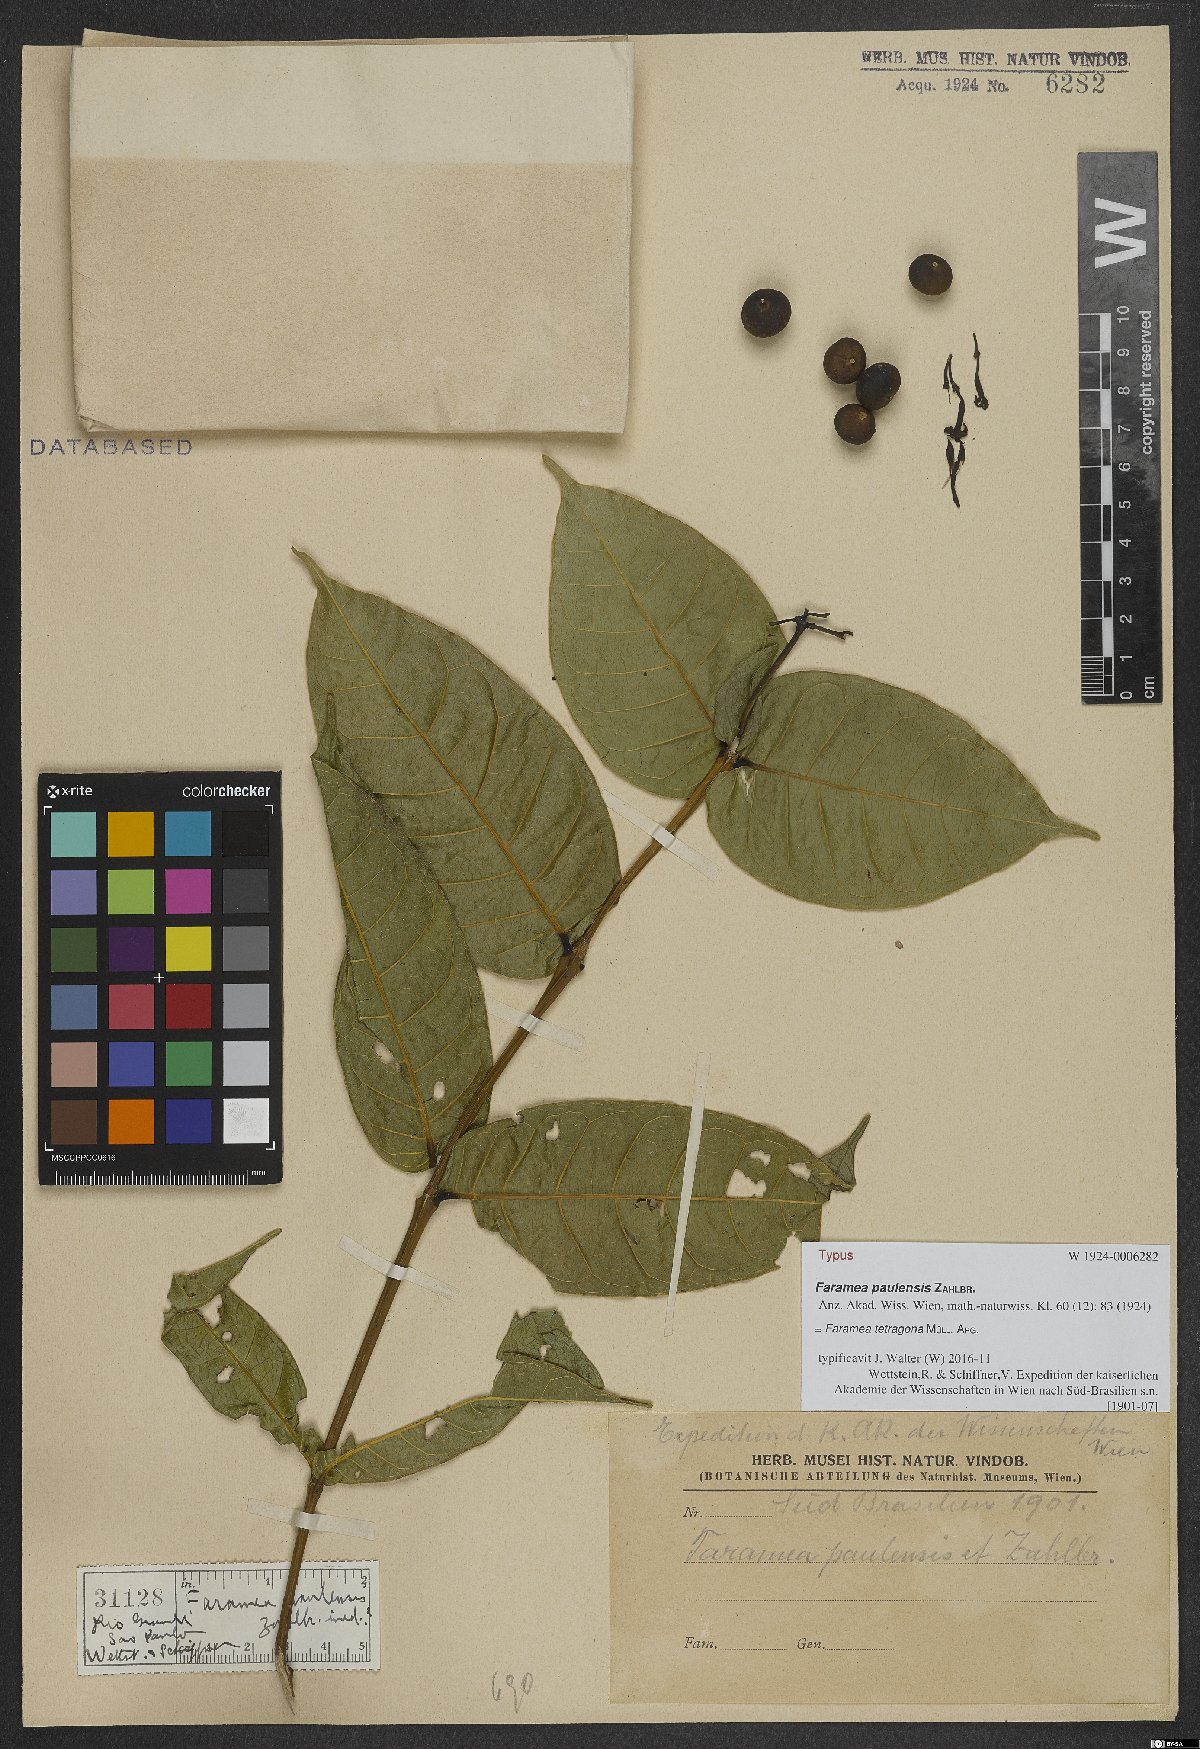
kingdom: Plantae
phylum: Tracheophyta
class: Magnoliopsida
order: Gentianales
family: Rubiaceae
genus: Faramea
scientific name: Faramea tetragona
